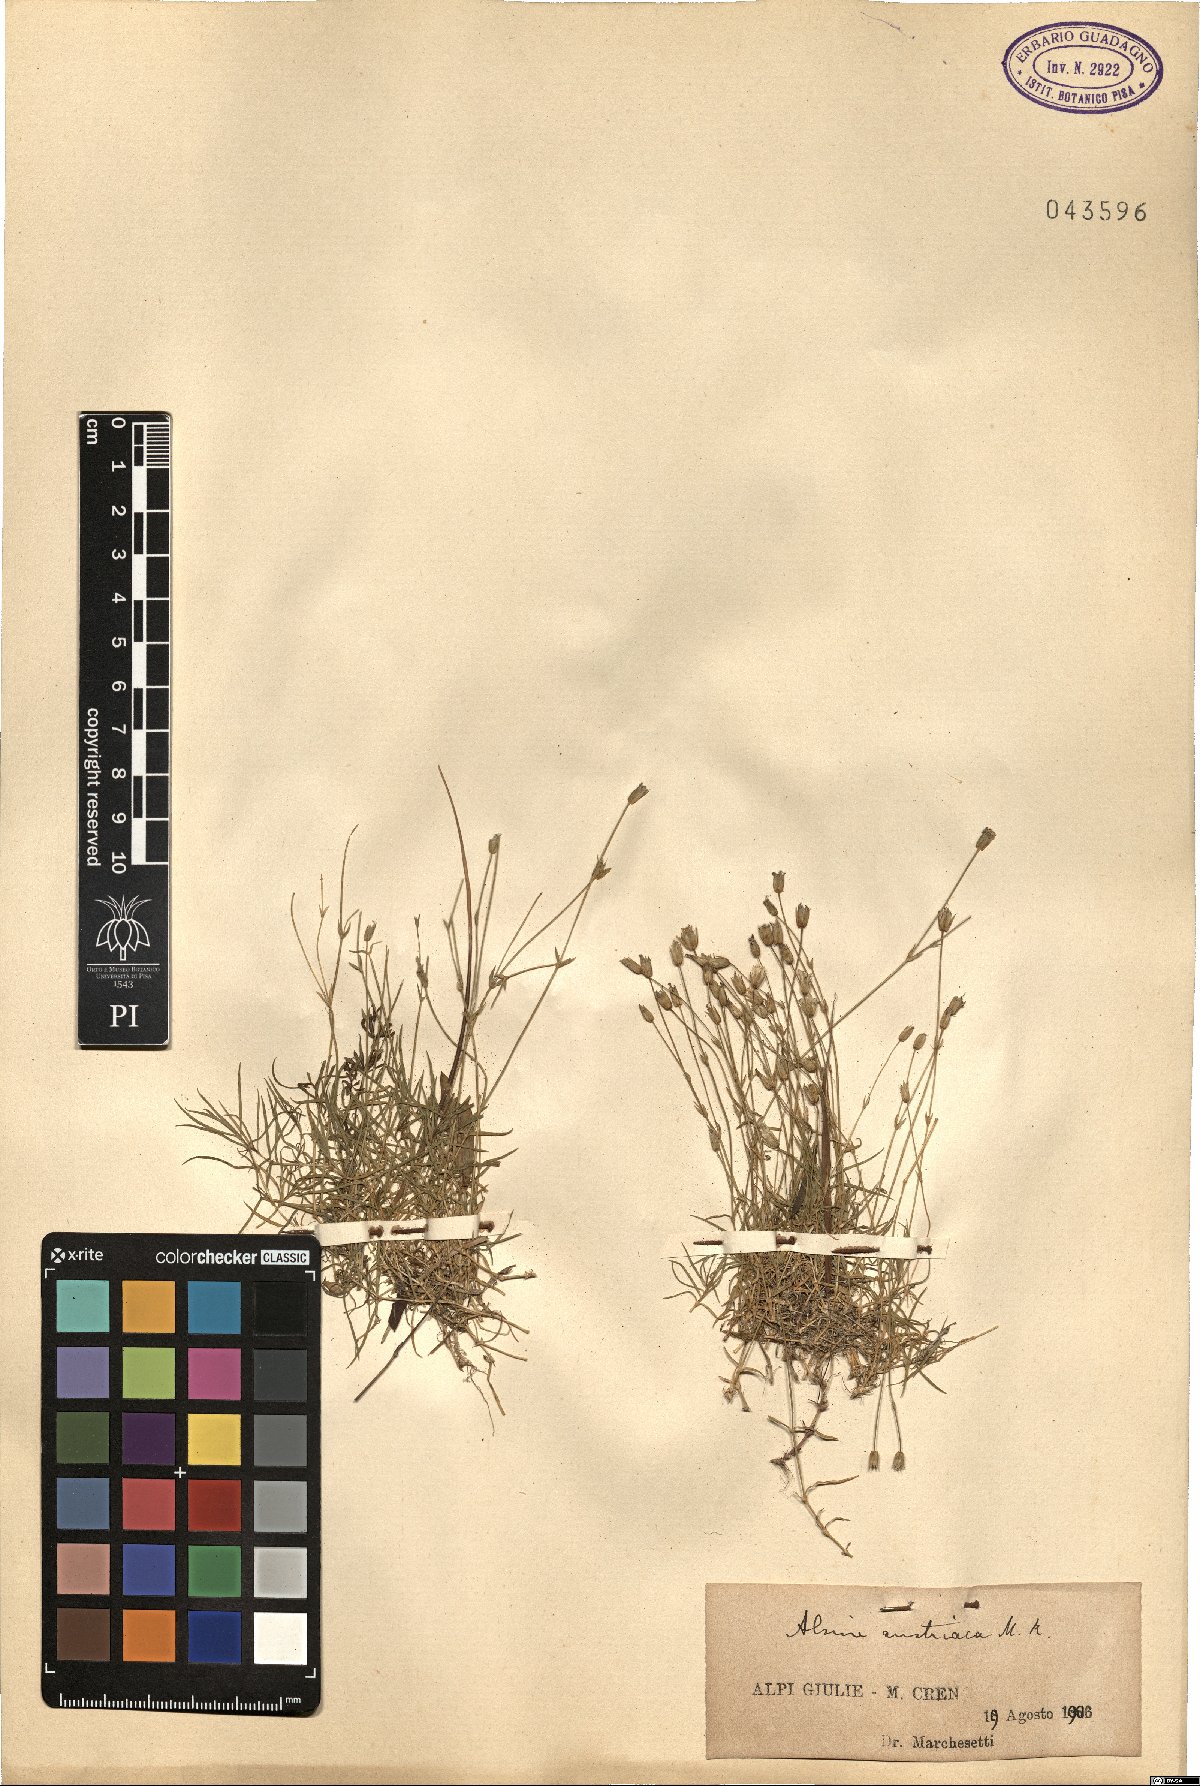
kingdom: Plantae
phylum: Tracheophyta
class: Magnoliopsida
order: Caryophyllales
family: Caryophyllaceae
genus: Sabulina
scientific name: Sabulina austriaca
